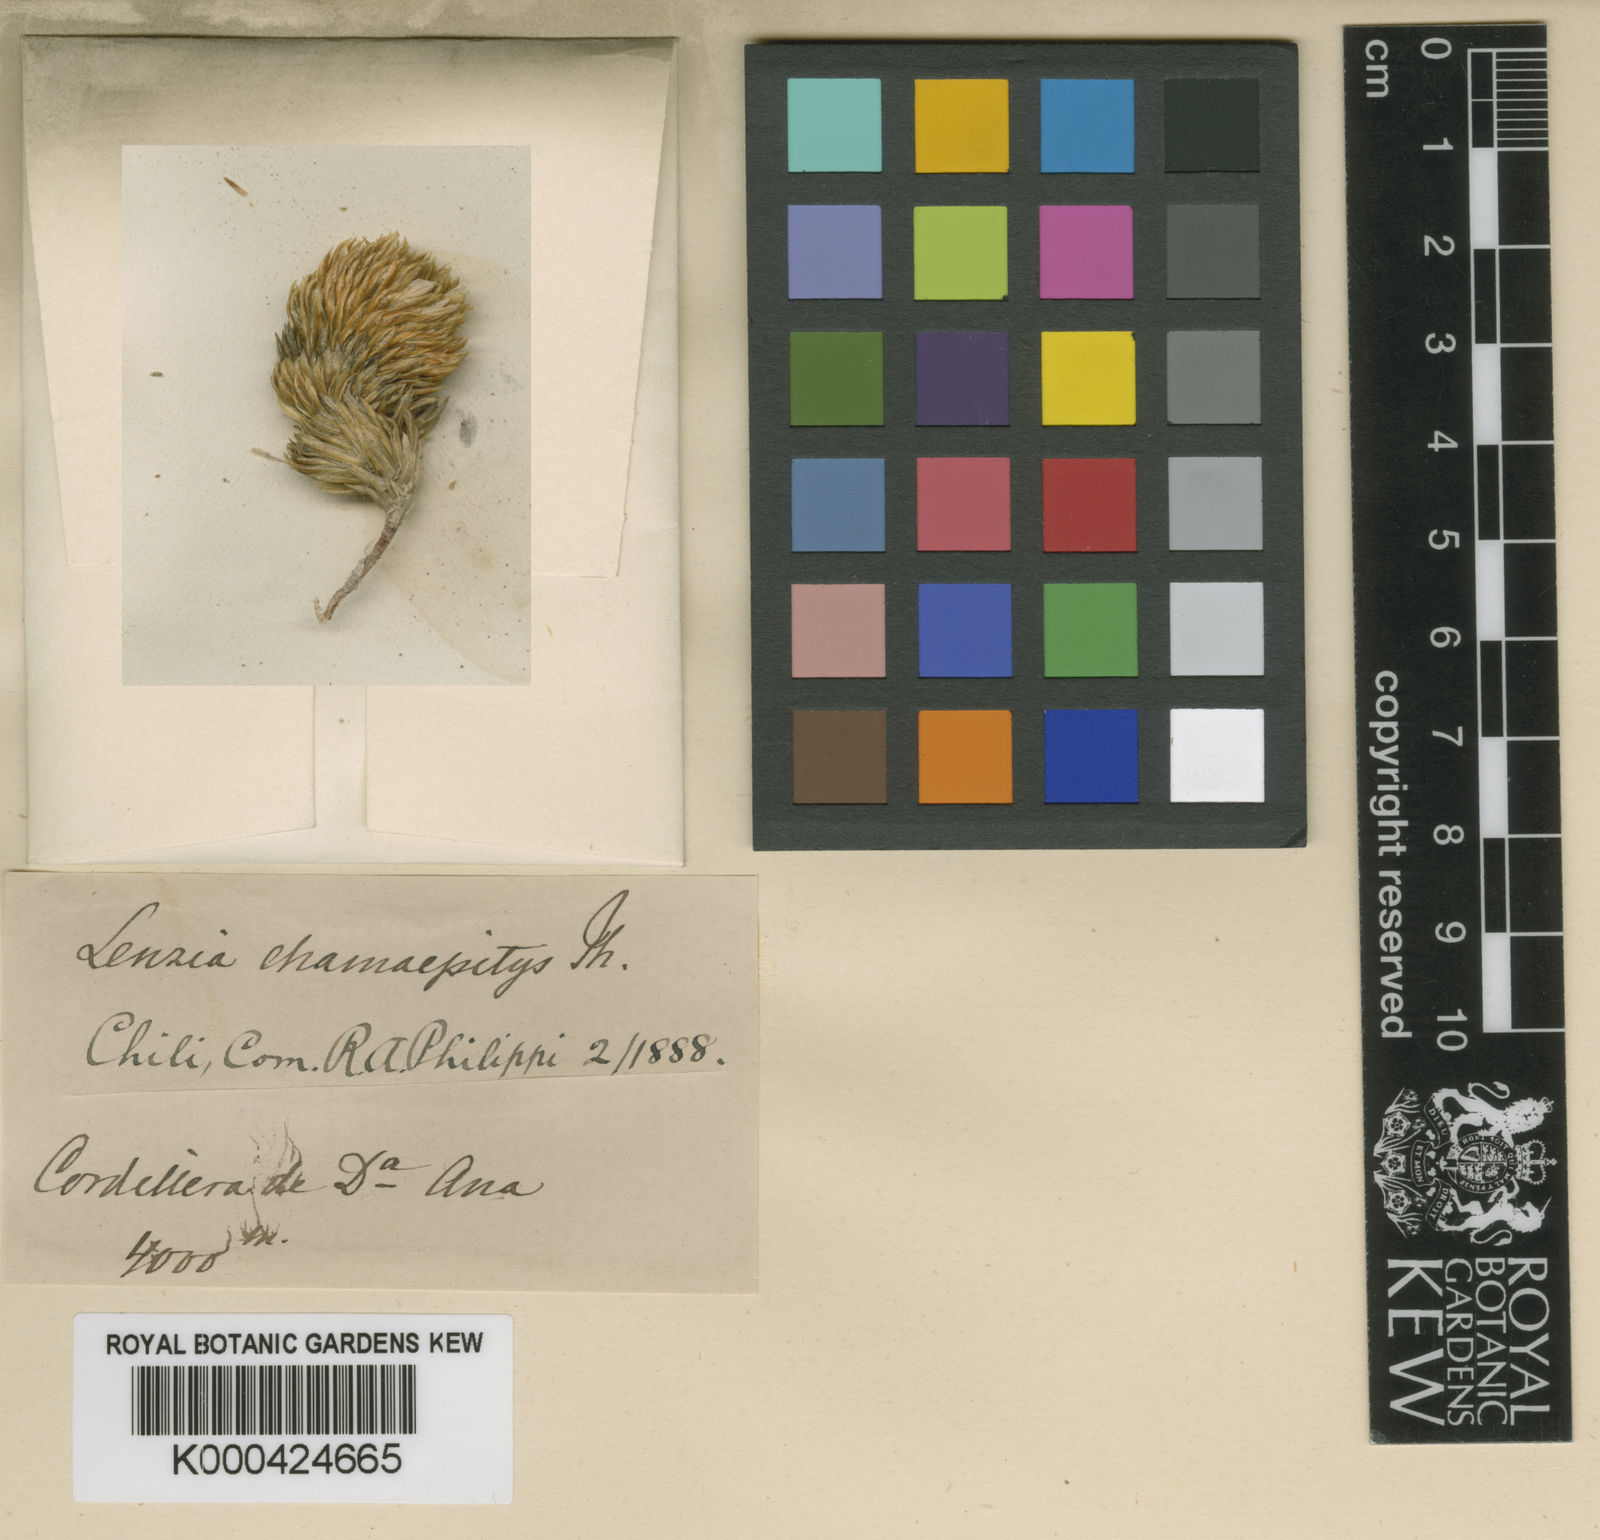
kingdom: Plantae
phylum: Tracheophyta
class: Magnoliopsida
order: Caryophyllales
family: Montiaceae
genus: Lenzia
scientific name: Lenzia chamaepitys
